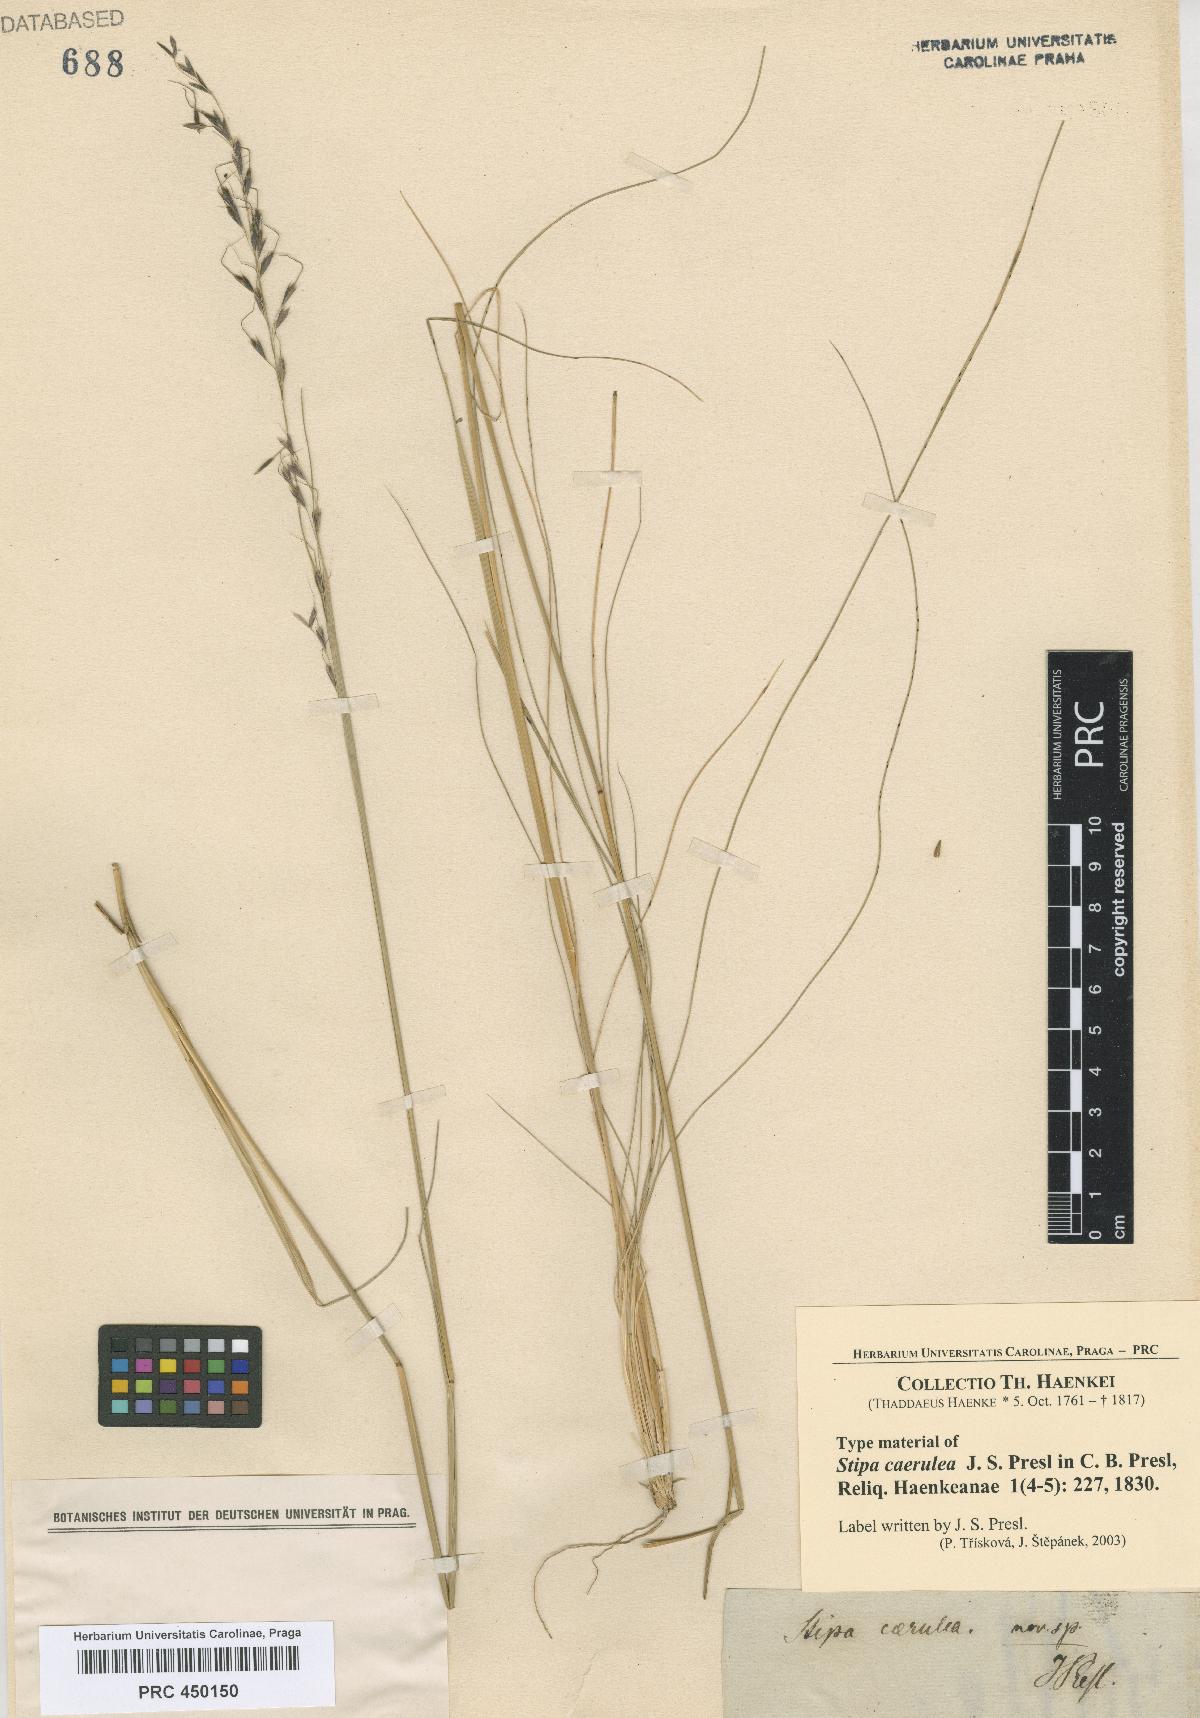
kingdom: Plantae
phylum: Tracheophyta
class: Liliopsida
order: Poales
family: Poaceae
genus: Piptochaetium
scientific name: Piptochaetium virescens
